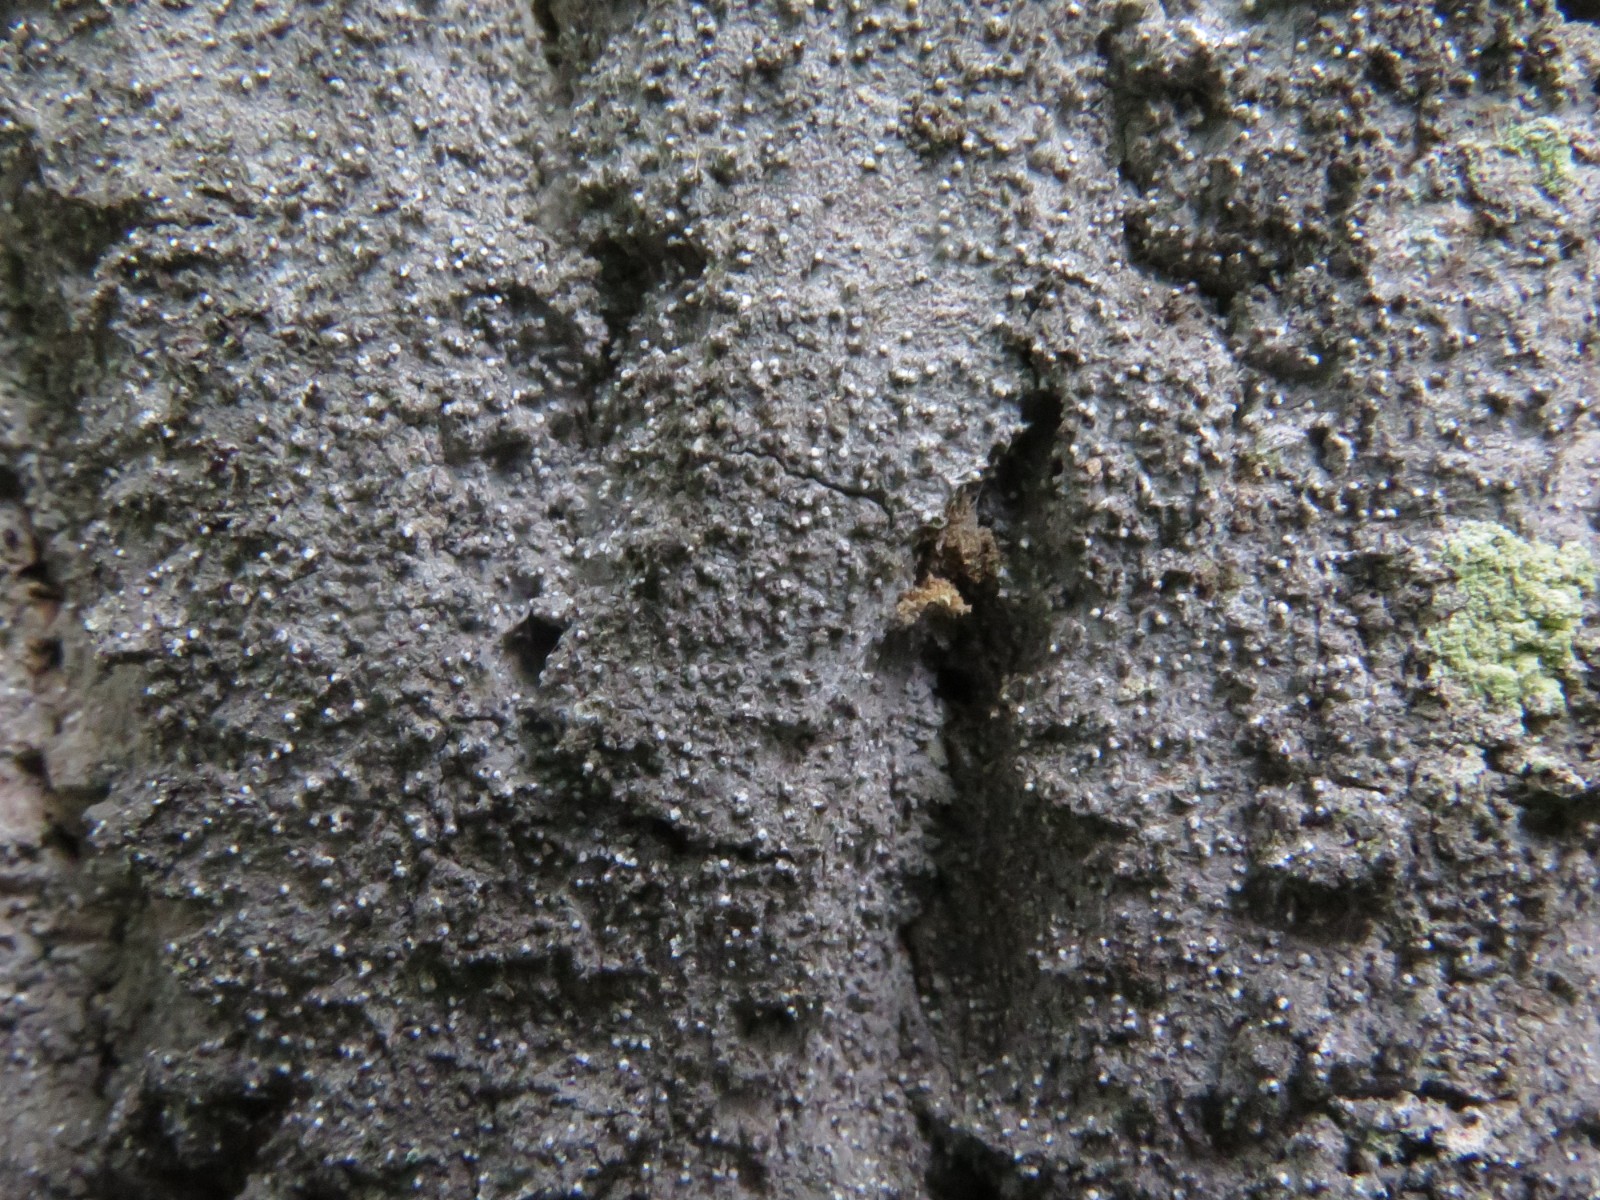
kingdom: Fungi
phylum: Ascomycota
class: Arthoniomycetes
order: Arthoniales
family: Roccellaceae
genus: Lecanactis
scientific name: Lecanactis abietina
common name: grå dugskivelav
